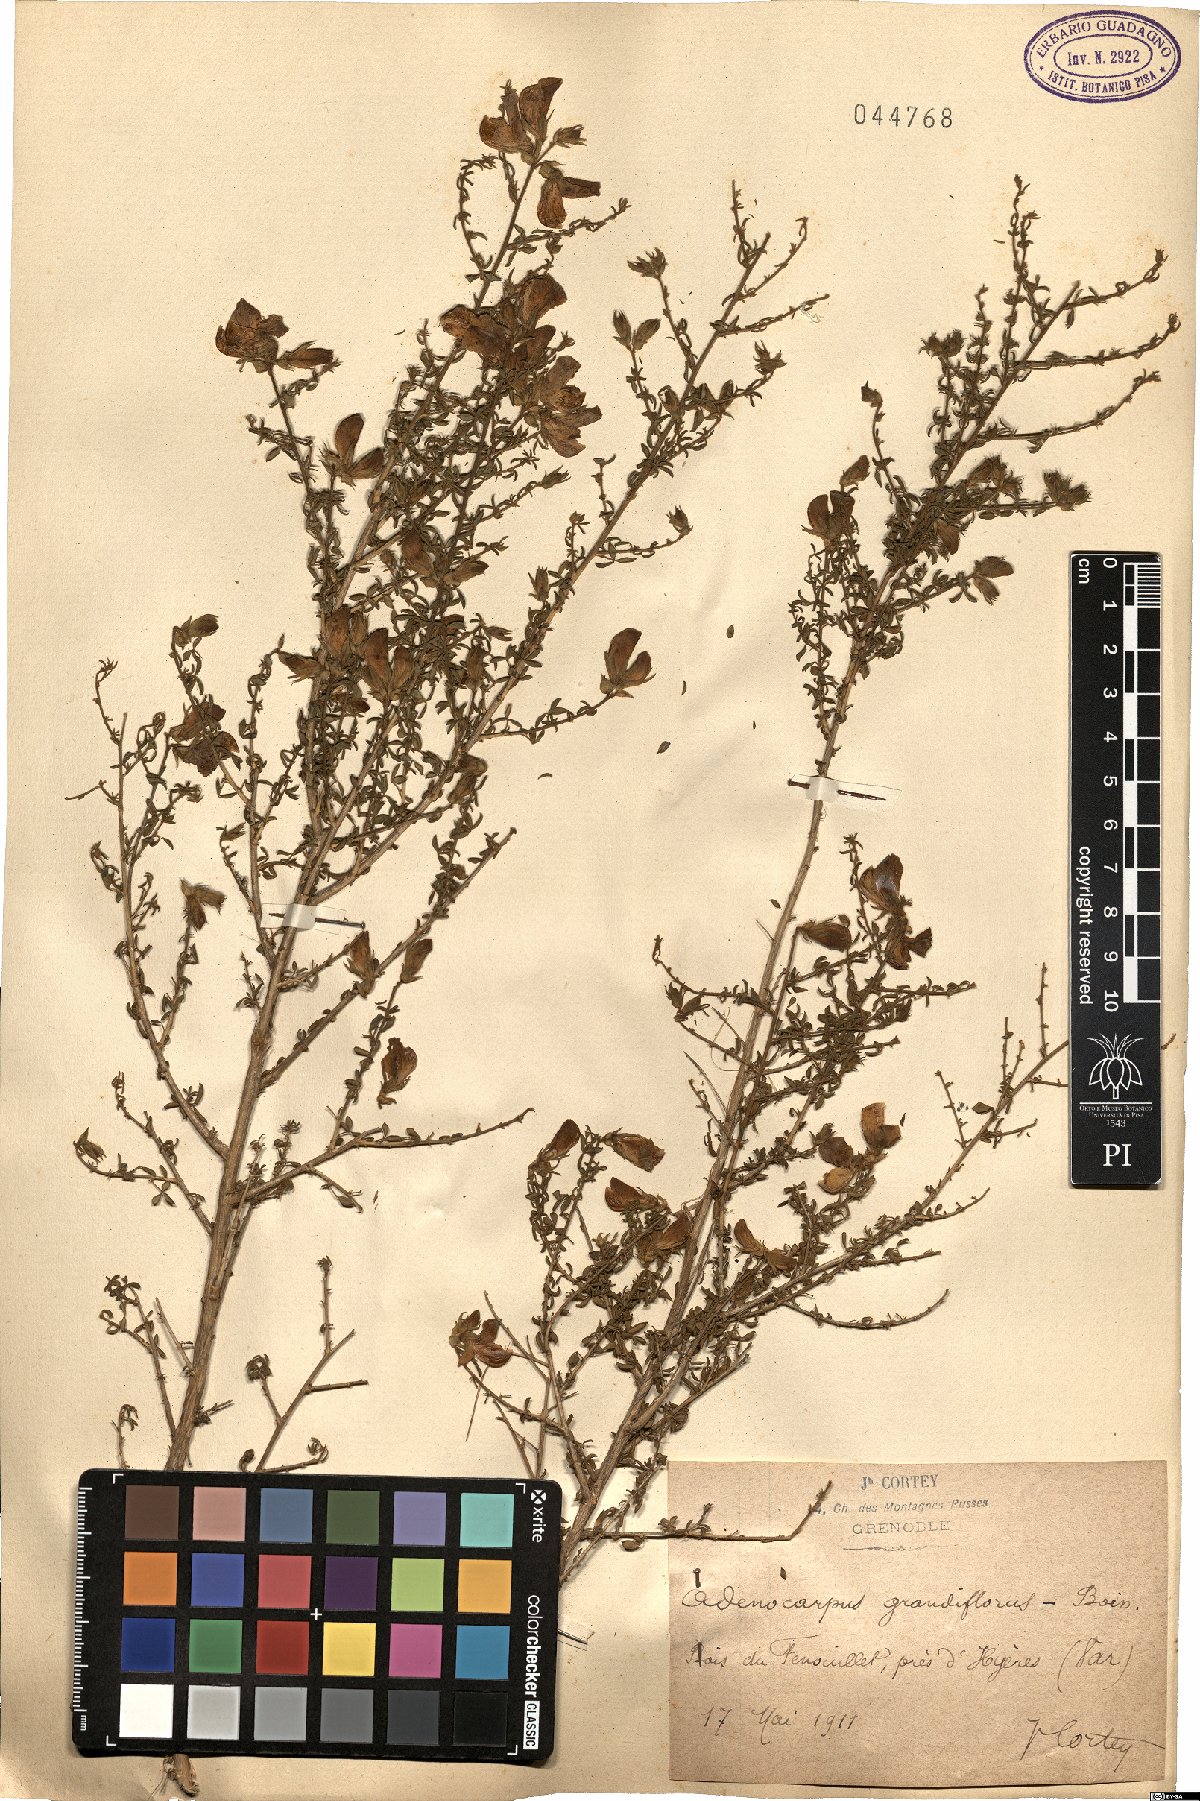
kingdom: Plantae
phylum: Tracheophyta
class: Magnoliopsida
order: Fabales
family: Fabaceae
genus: Adenocarpus
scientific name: Adenocarpus telonensis
